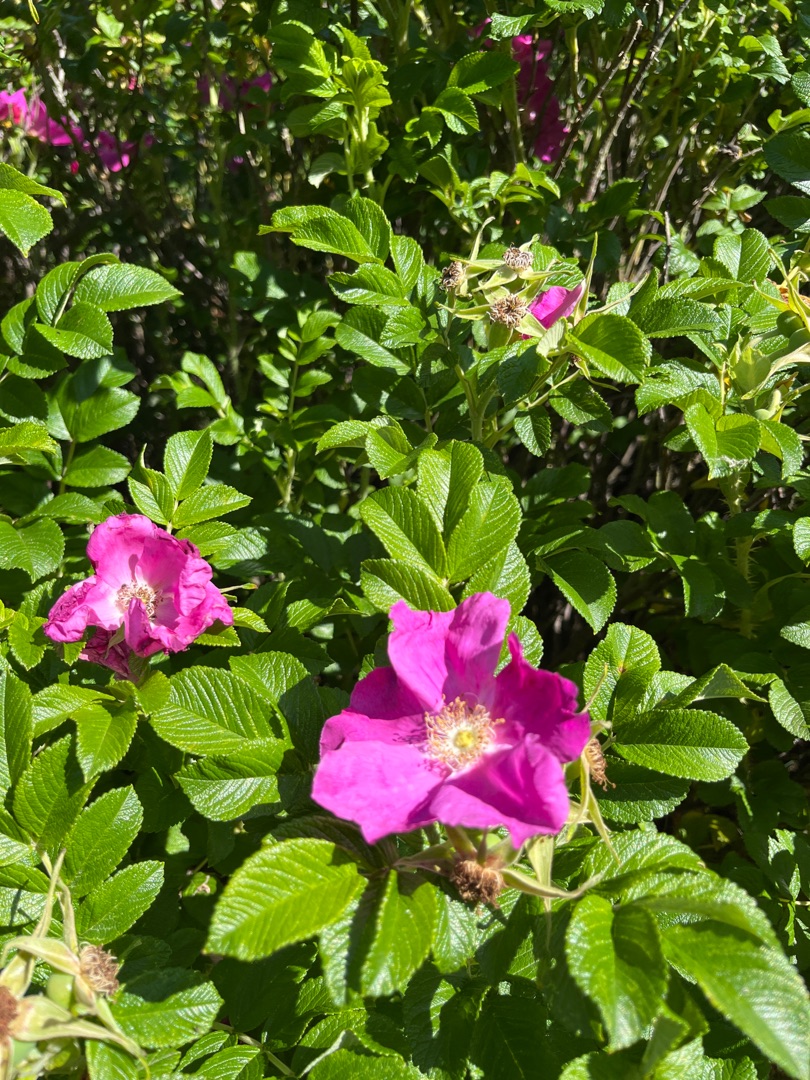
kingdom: Plantae
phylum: Tracheophyta
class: Magnoliopsida
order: Rosales
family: Rosaceae
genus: Rosa
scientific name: Rosa rugosa
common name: Rynket rose
